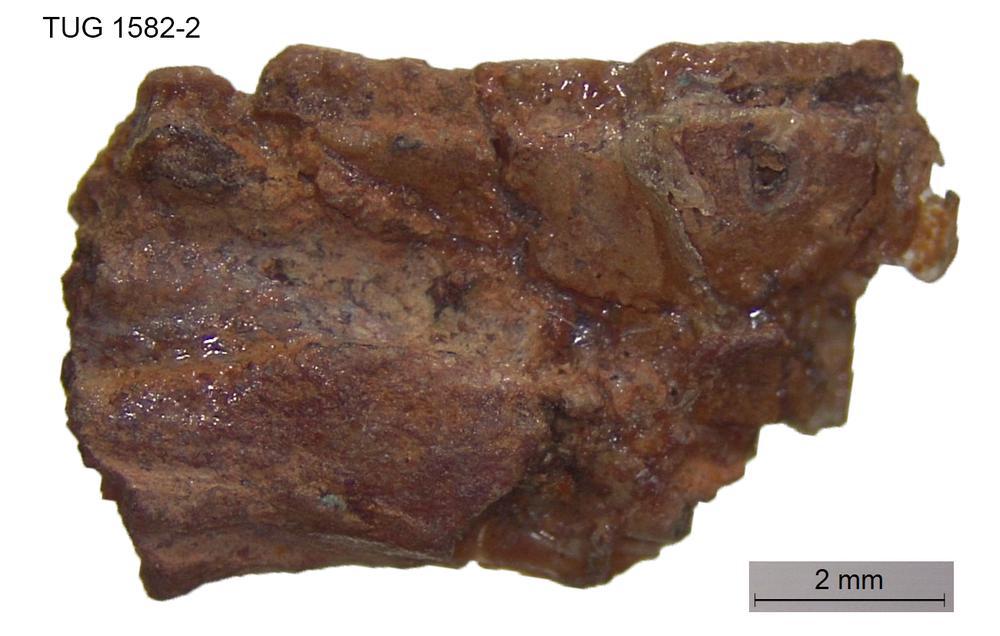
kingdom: Animalia
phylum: Chordata
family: Thursiidae
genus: Thursius
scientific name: Thursius estonicus
